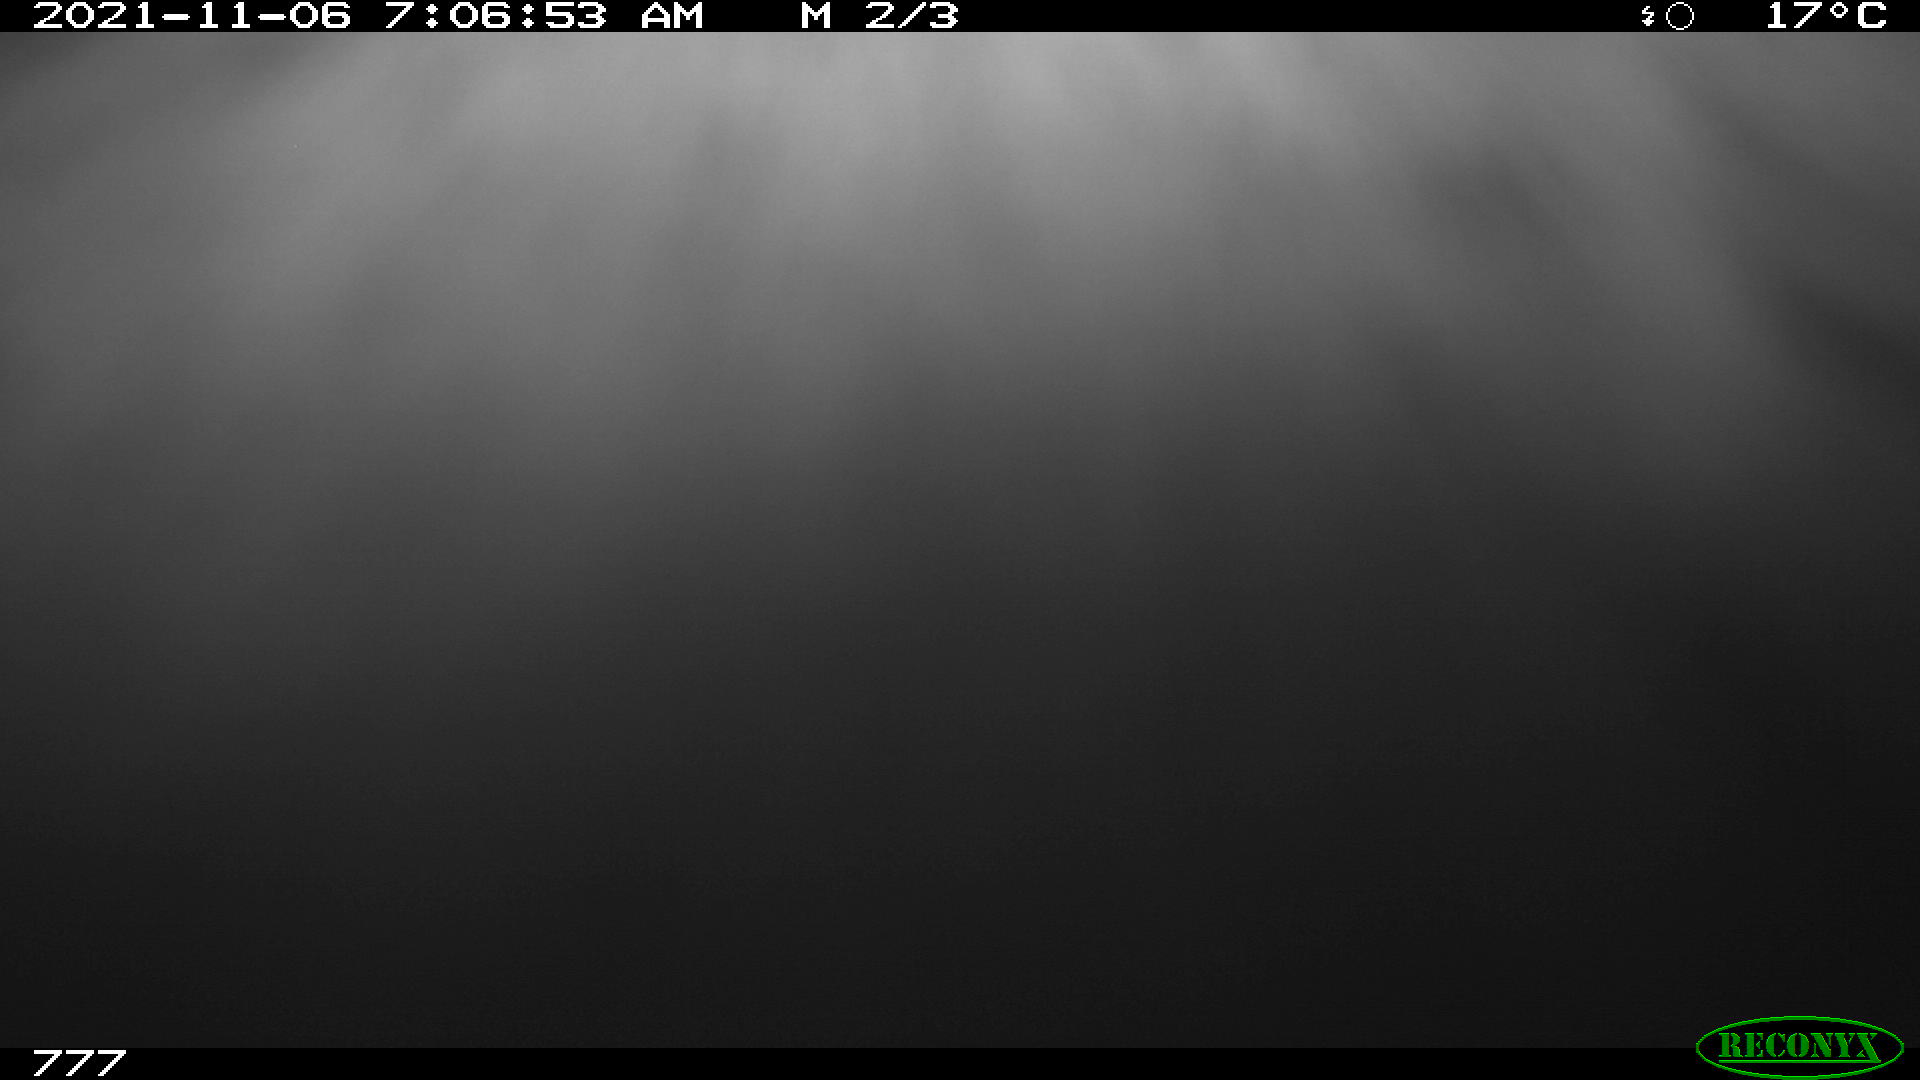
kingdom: Animalia
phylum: Chordata
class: Mammalia
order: Perissodactyla
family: Equidae
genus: Equus
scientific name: Equus caballus
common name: Horse
